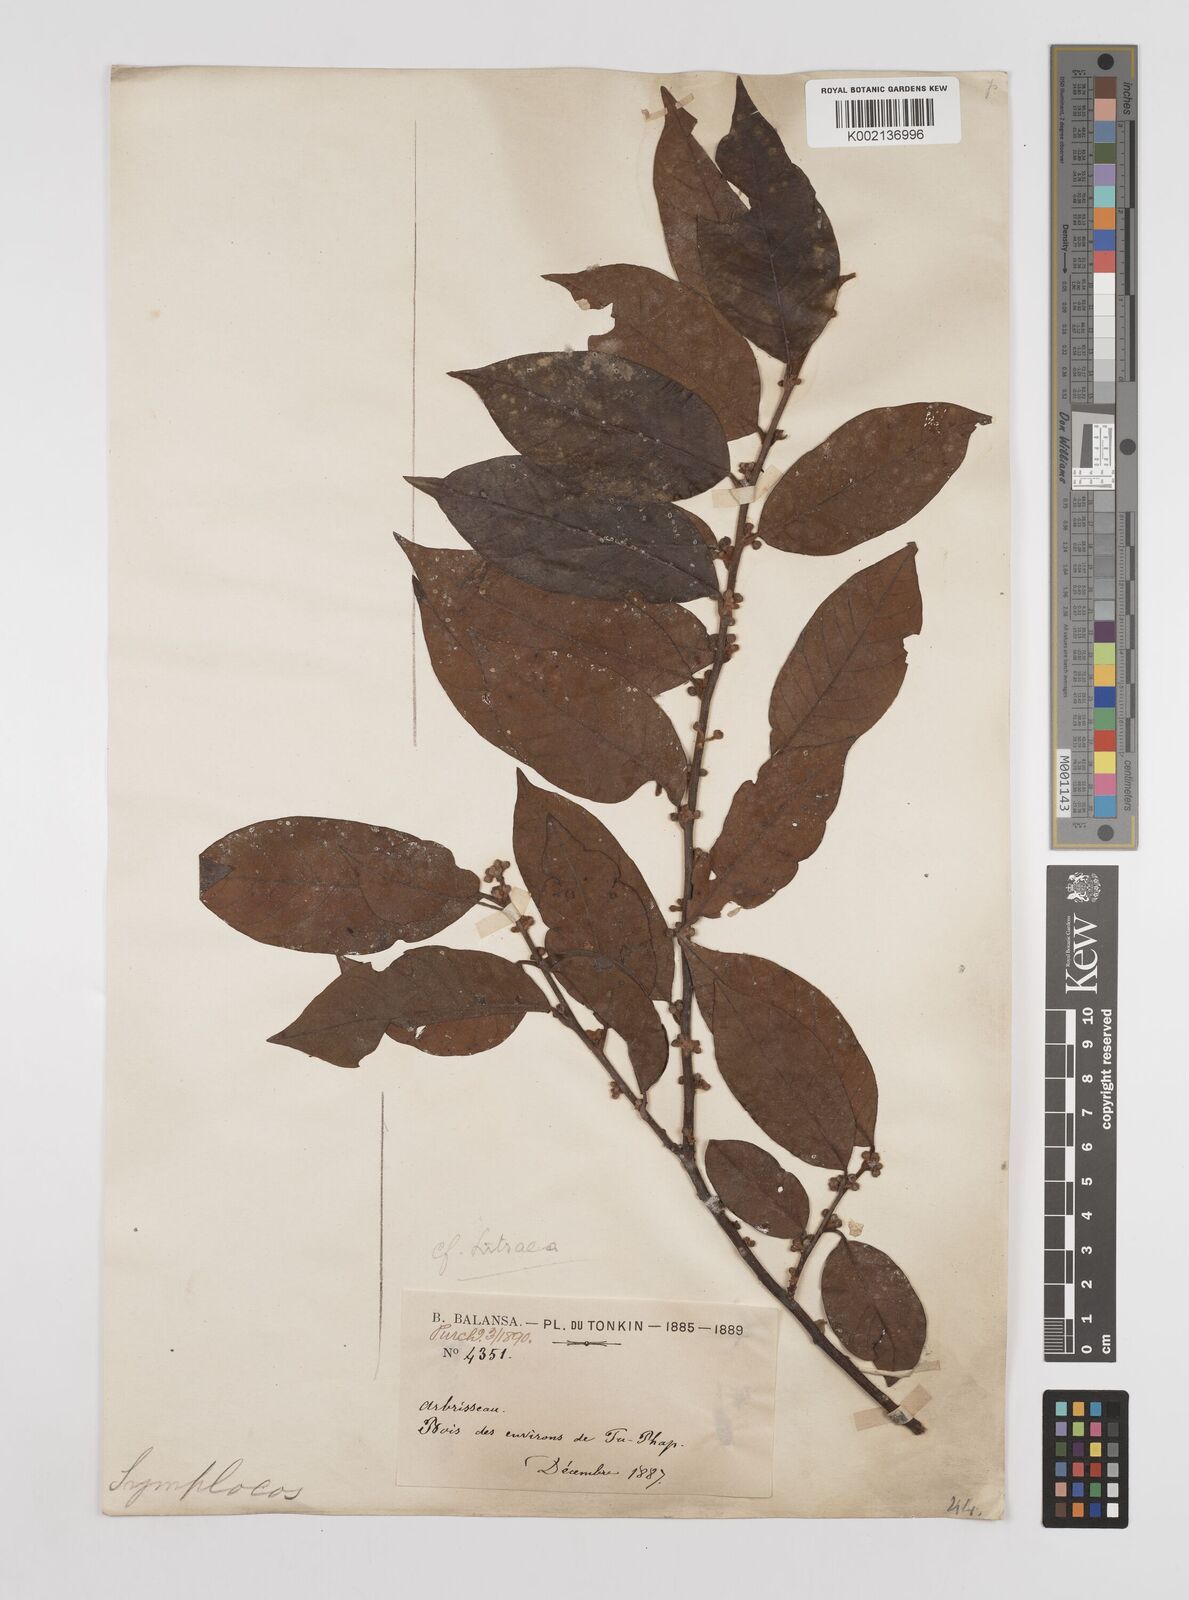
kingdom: Plantae
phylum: Tracheophyta
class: Magnoliopsida
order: Laurales
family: Lauraceae
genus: Litsea
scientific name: Litsea umbellata
